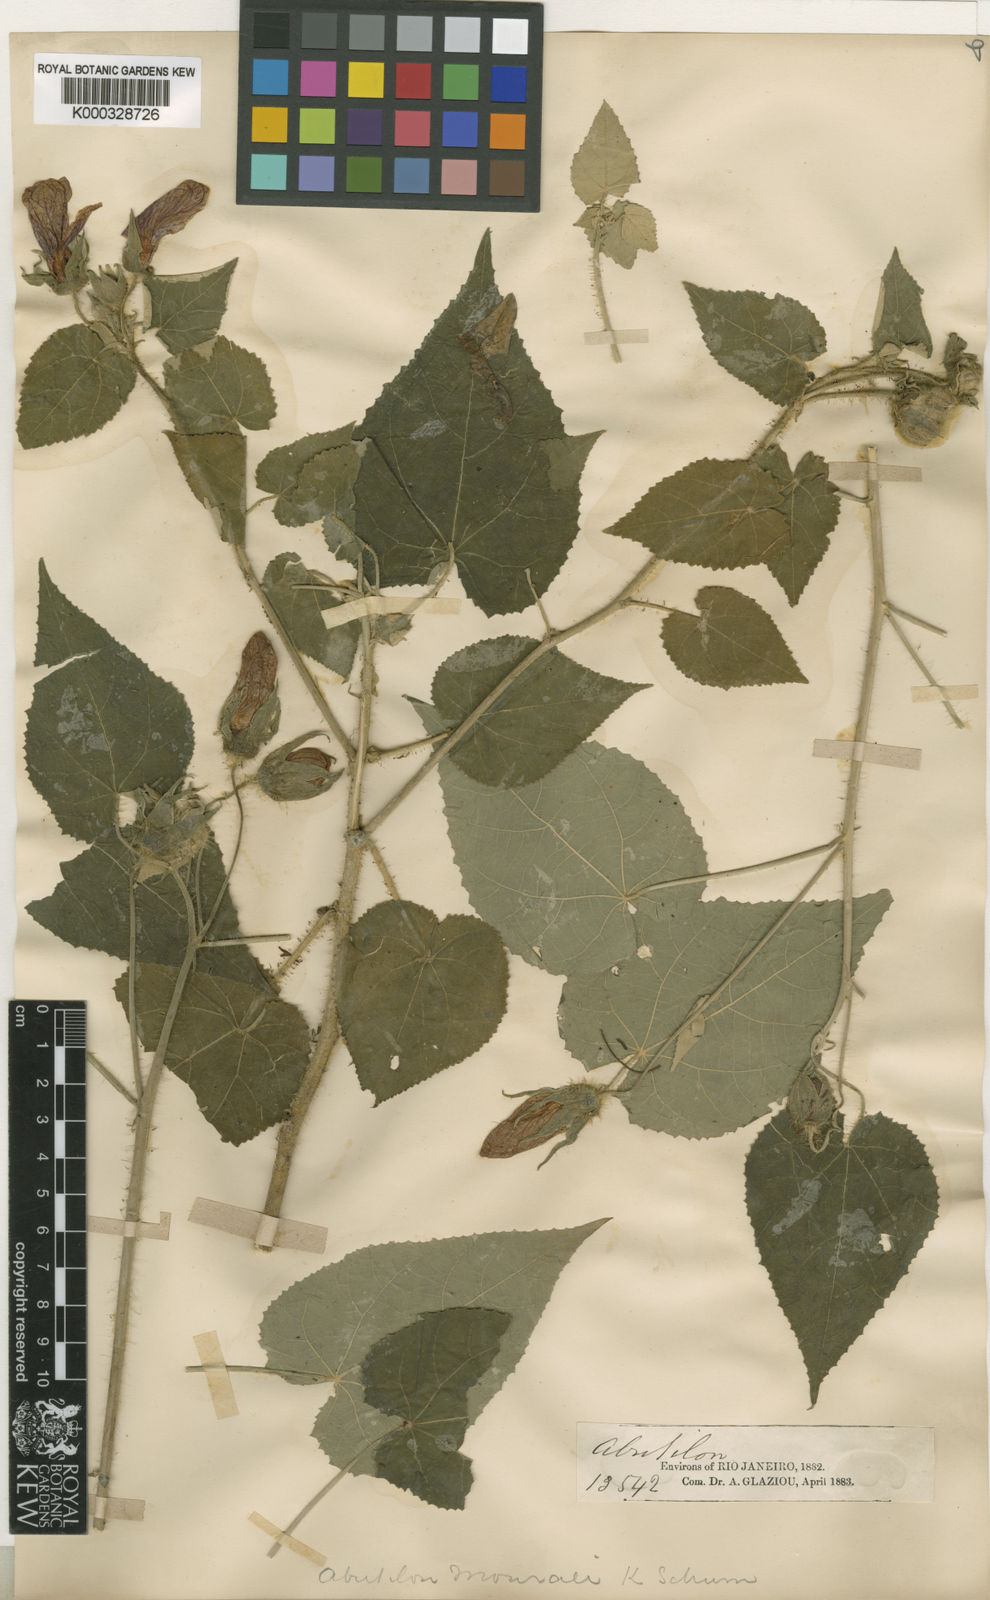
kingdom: Plantae
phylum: Tracheophyta
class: Magnoliopsida
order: Malvales
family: Malvaceae
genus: Callianthe
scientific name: Callianthe mourae
